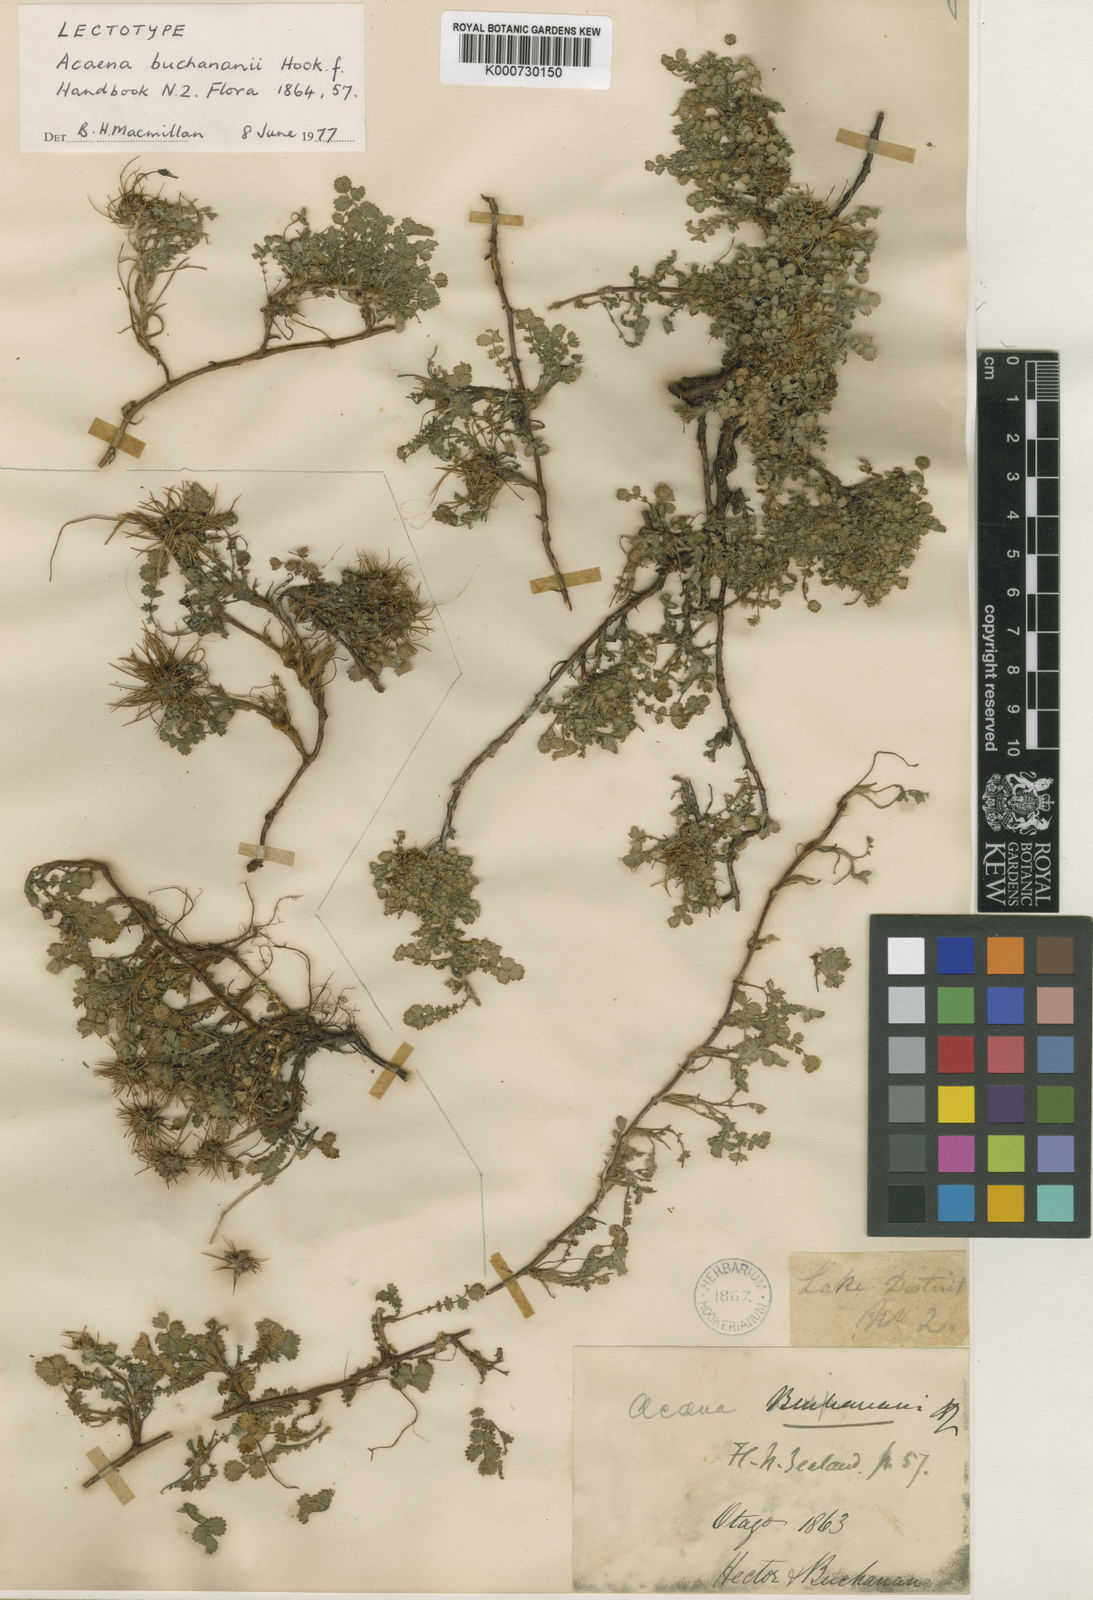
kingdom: Plantae
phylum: Tracheophyta
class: Magnoliopsida
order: Rosales
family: Rosaceae
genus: Acaena
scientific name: Acaena buchananii
